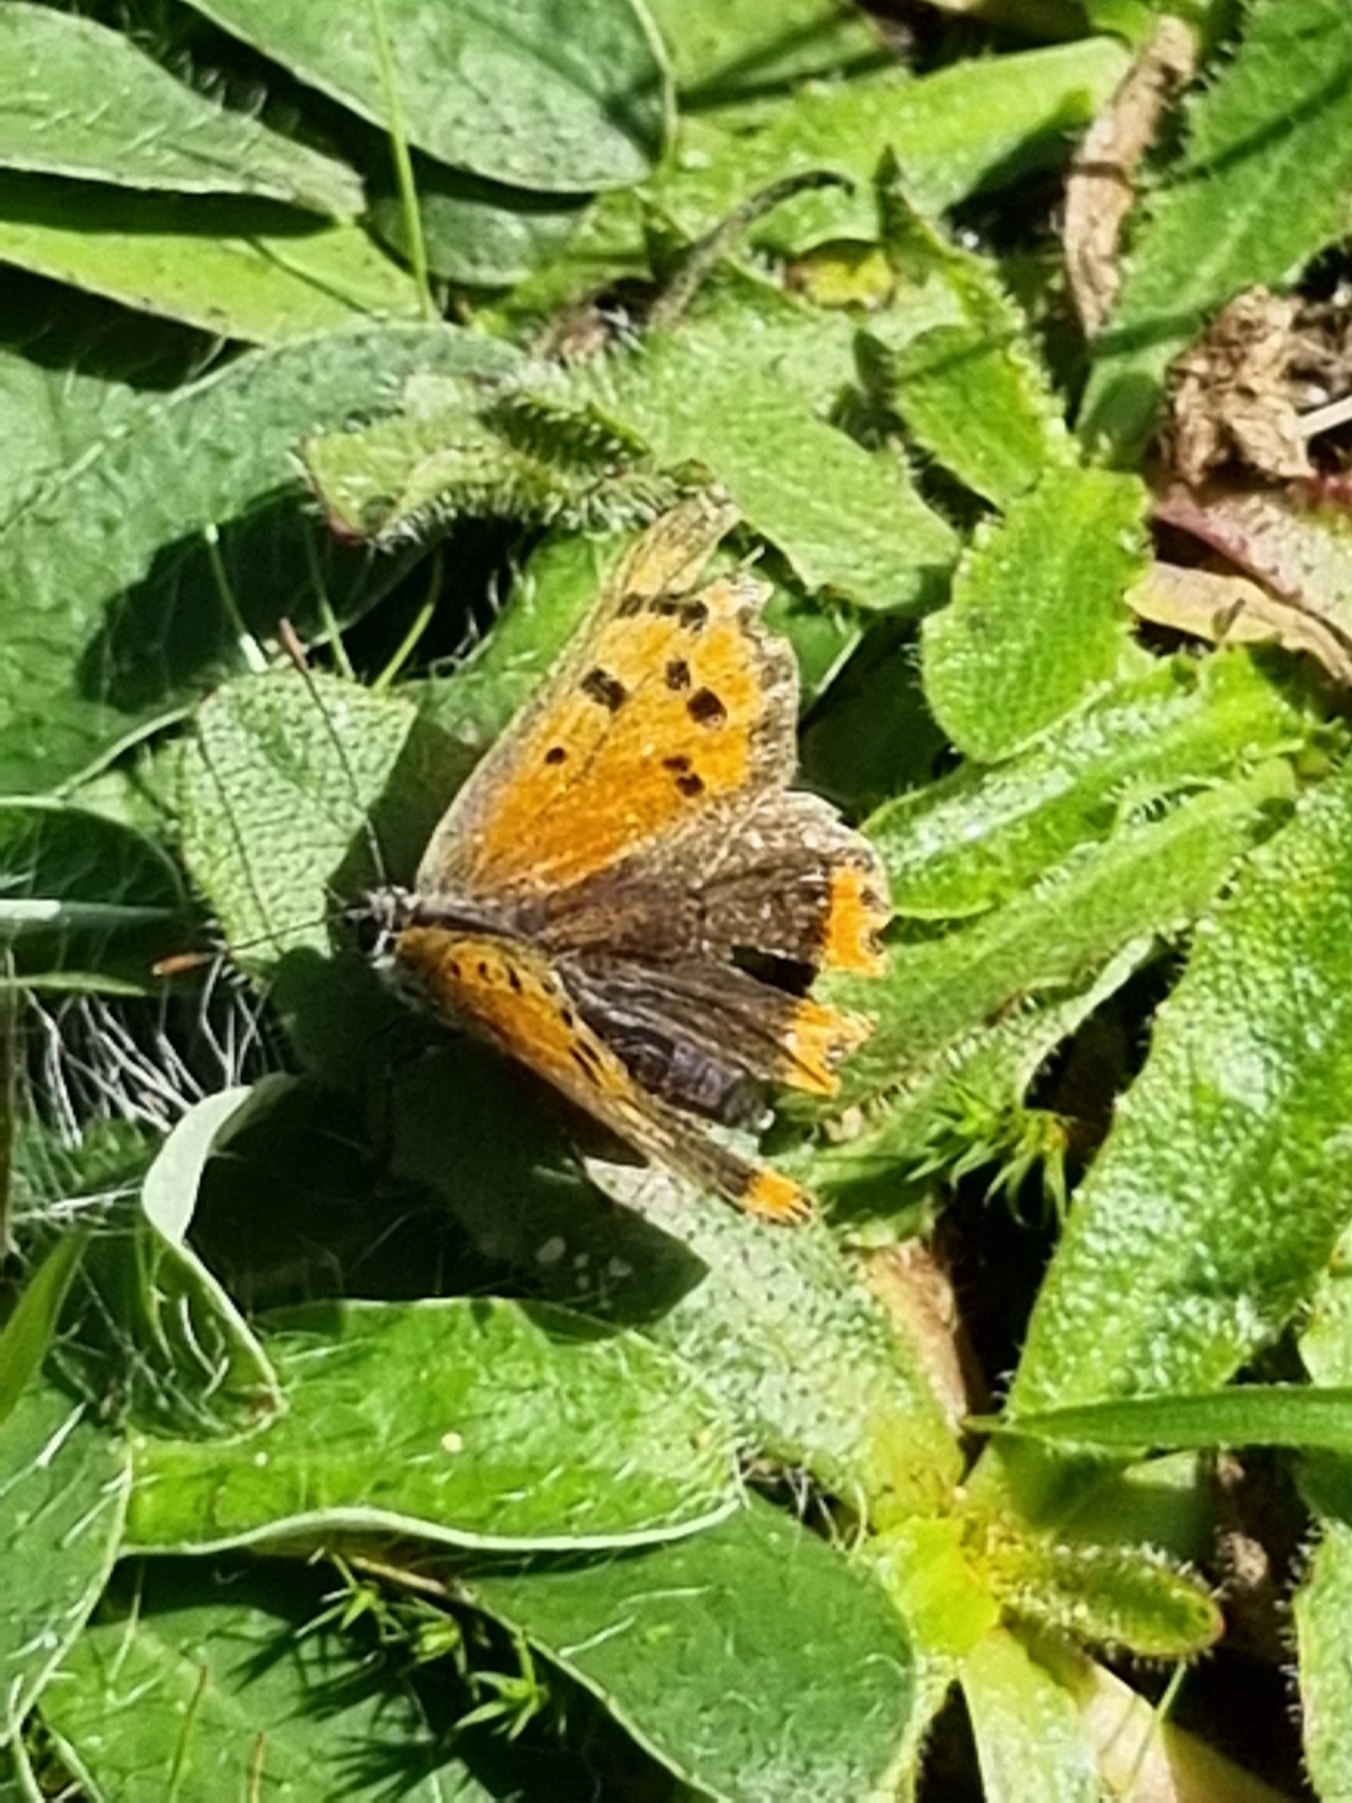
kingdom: Animalia
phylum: Arthropoda
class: Insecta
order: Lepidoptera
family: Lycaenidae
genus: Lycaena
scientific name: Lycaena phlaeas
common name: Lille ildfugl
